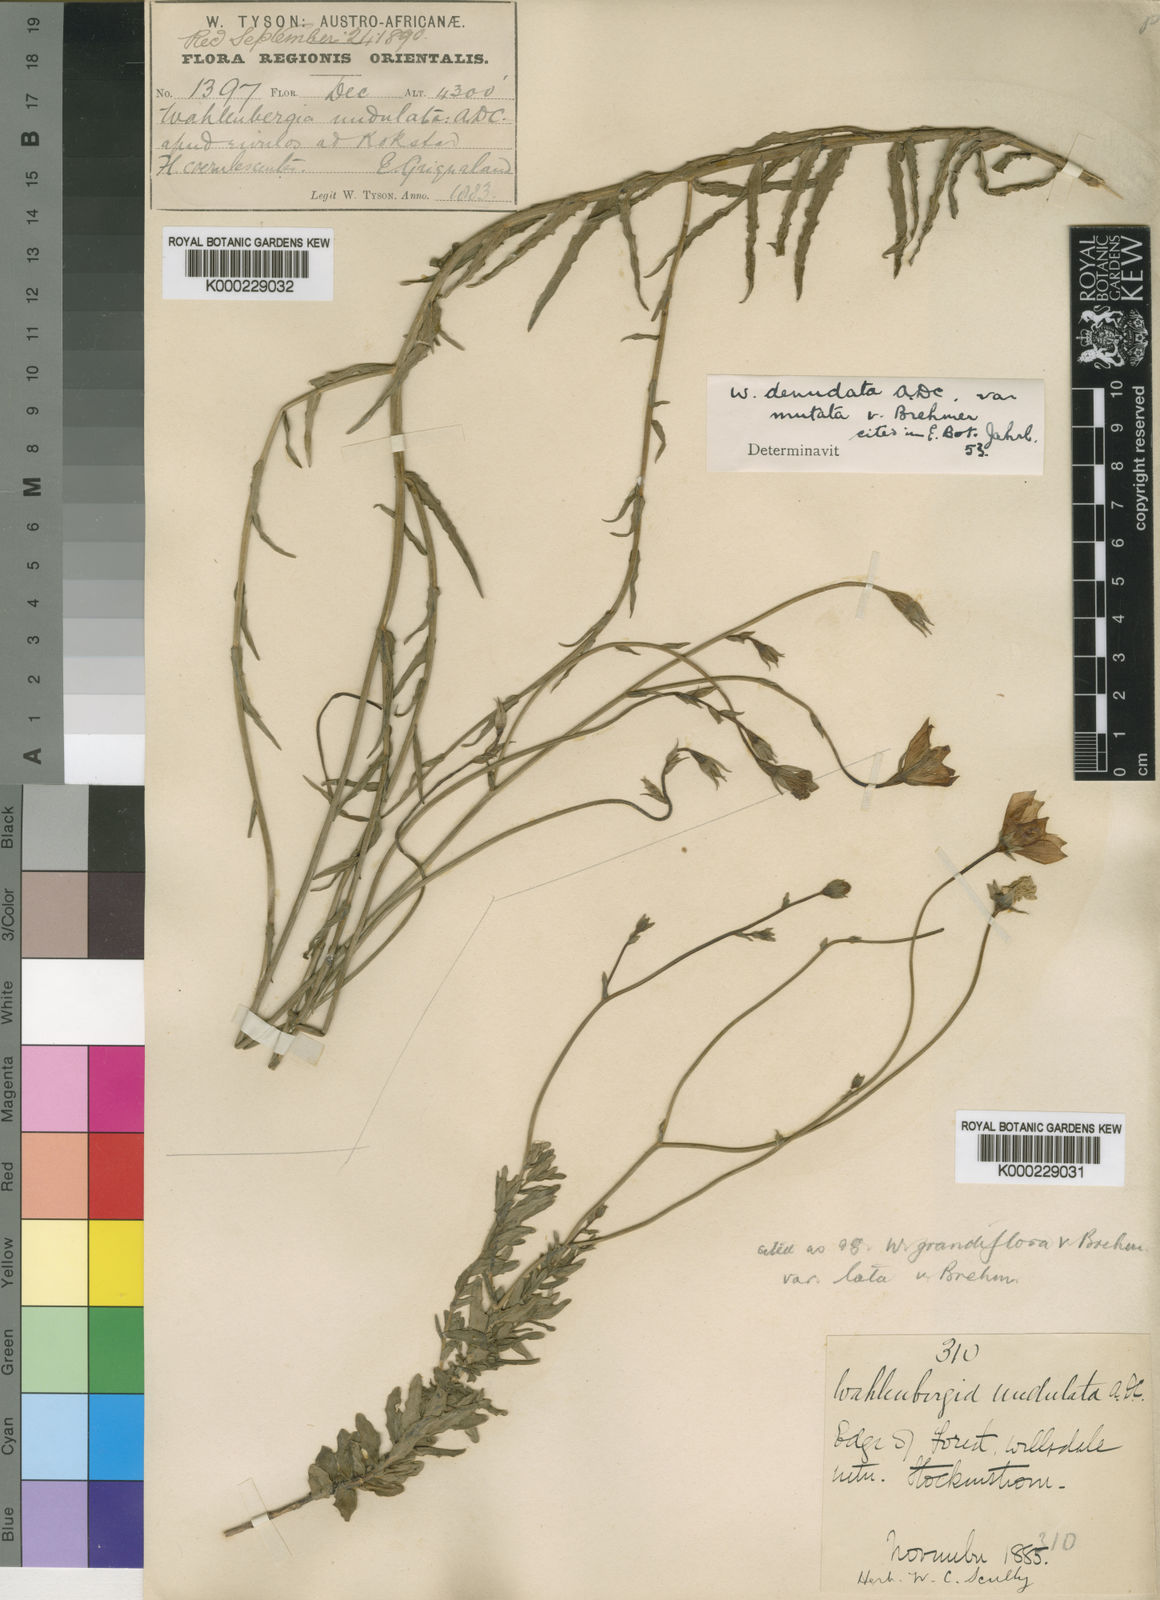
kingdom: Plantae
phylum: Tracheophyta
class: Magnoliopsida
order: Asterales
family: Campanulaceae
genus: Wahlenbergia
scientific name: Wahlenbergia denudata
